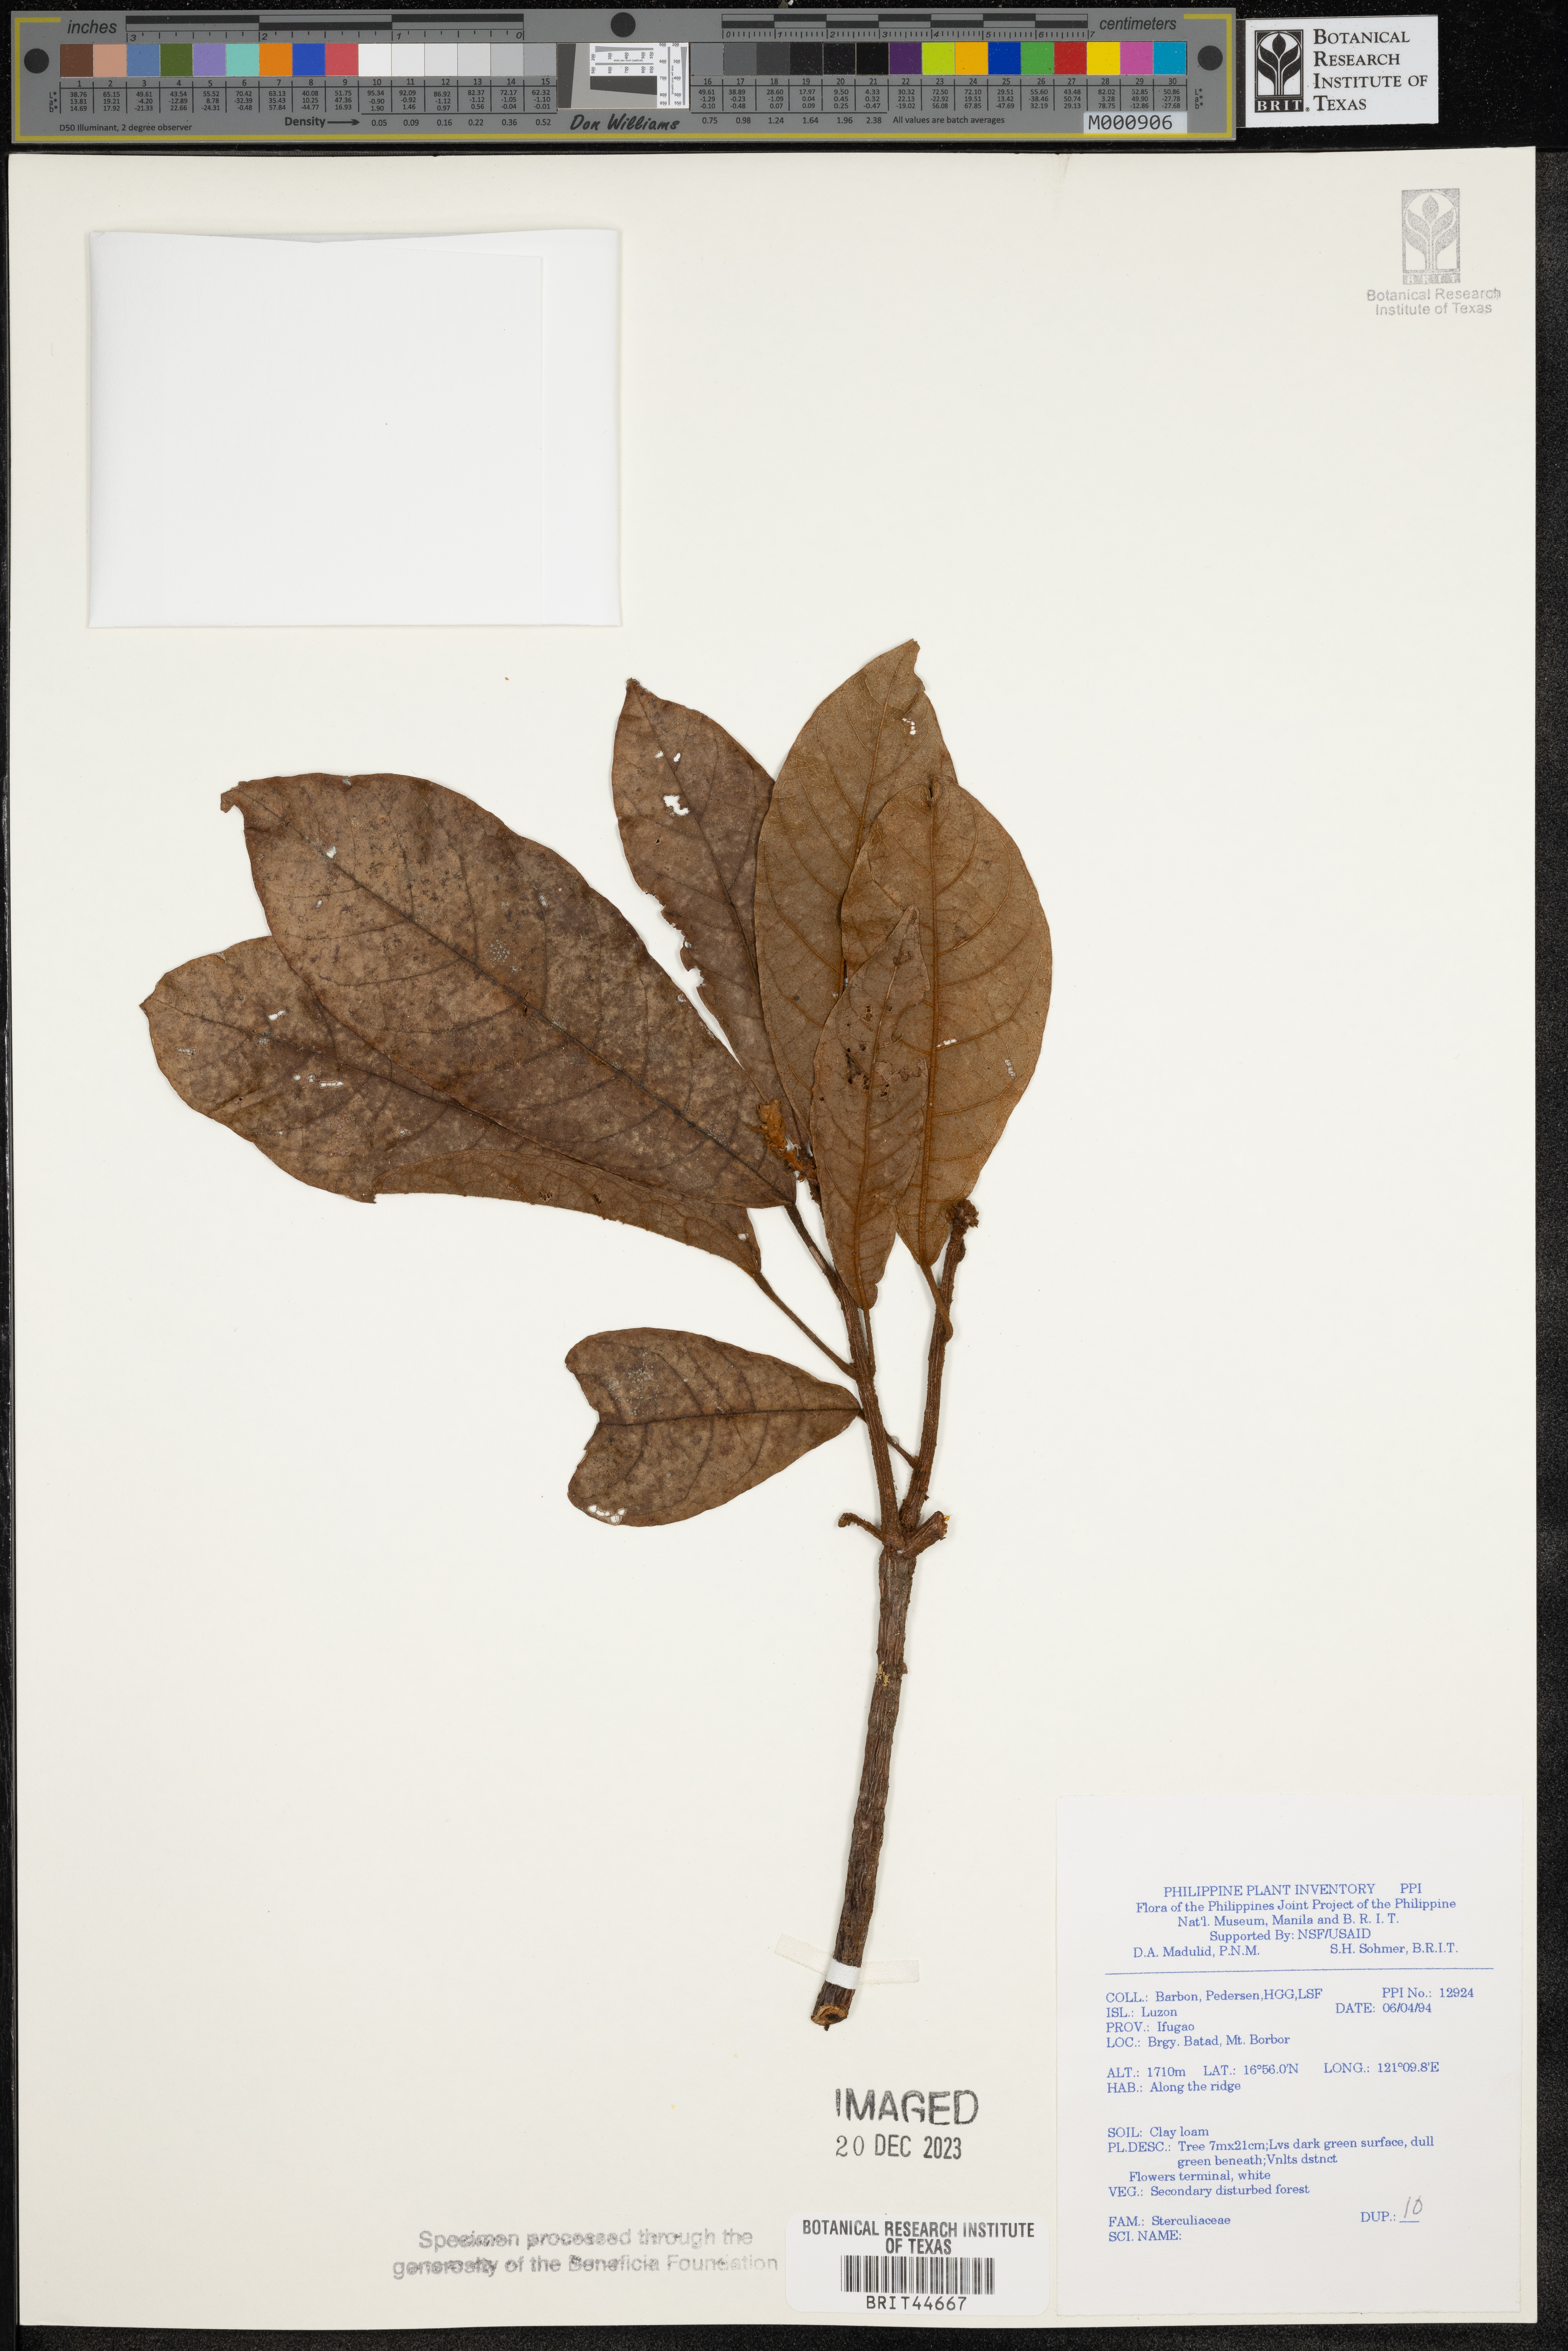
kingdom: Plantae
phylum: Tracheophyta
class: Magnoliopsida
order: Malvales
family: Sterculiaceae
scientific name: Sterculiaceae
